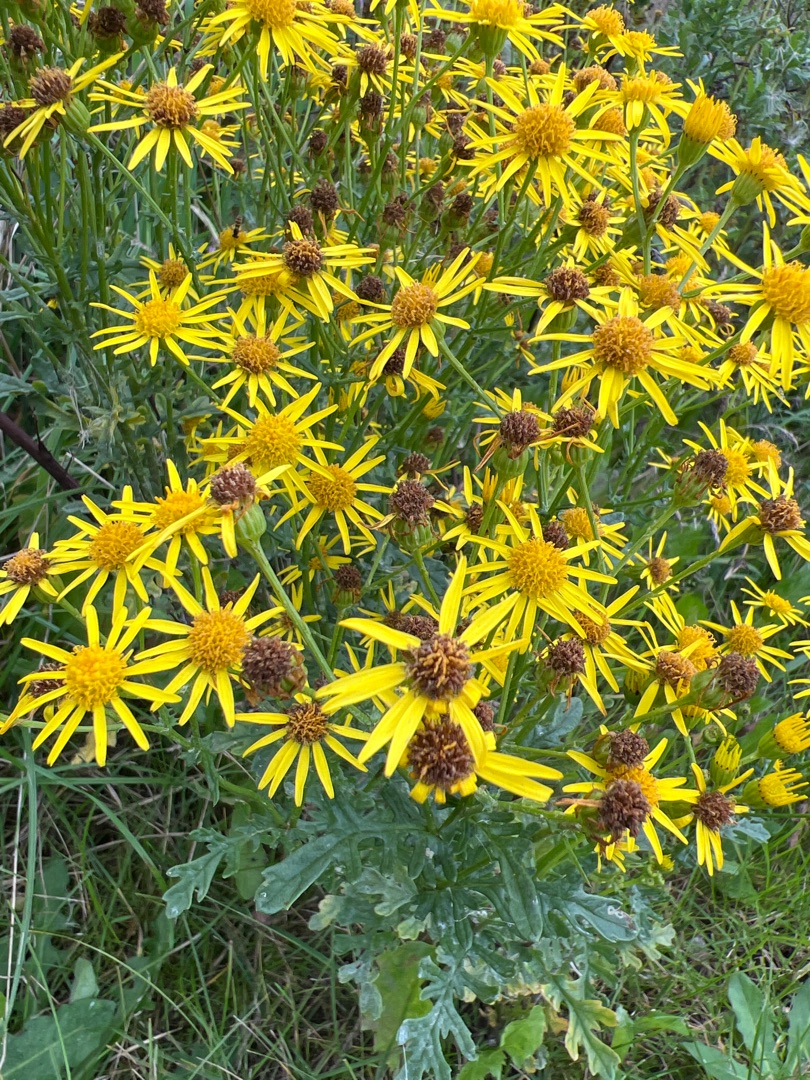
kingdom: Plantae
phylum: Tracheophyta
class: Magnoliopsida
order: Asterales
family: Asteraceae
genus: Jacobaea
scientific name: Jacobaea vulgaris
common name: Eng-brandbæger
